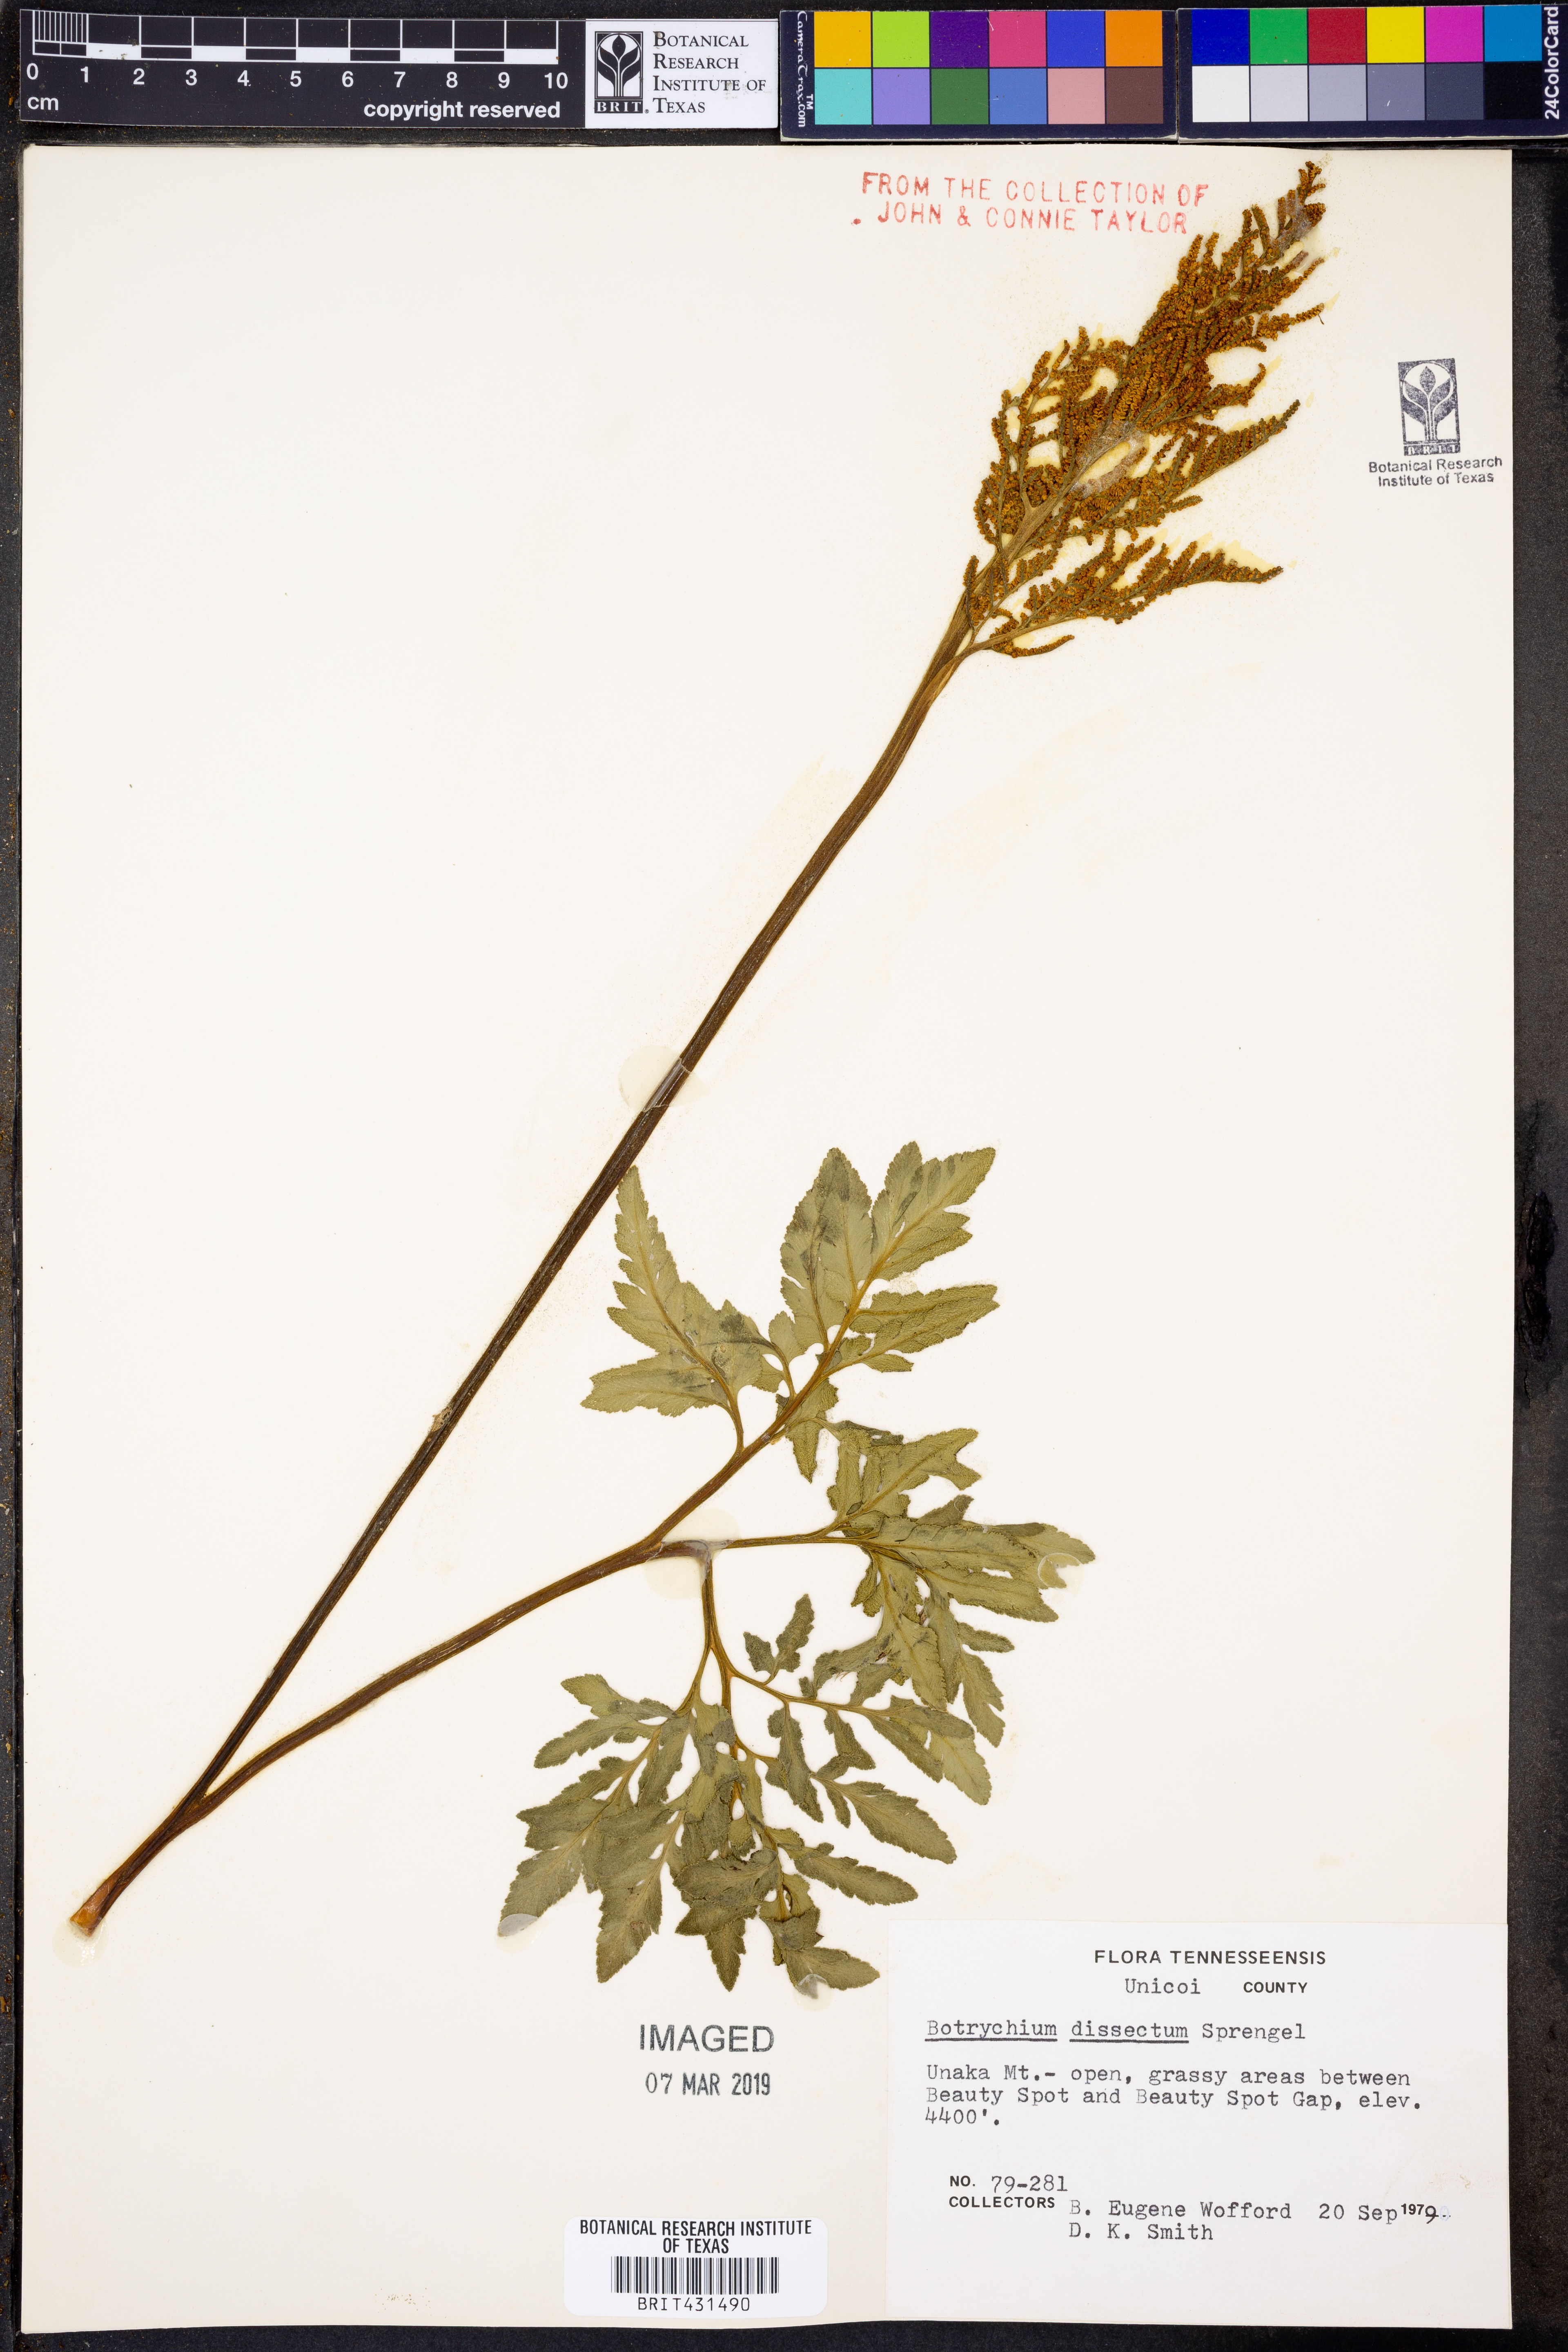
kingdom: Plantae
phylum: Tracheophyta
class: Polypodiopsida
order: Ophioglossales
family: Ophioglossaceae
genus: Sceptridium
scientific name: Sceptridium dissectum
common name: Cut-leaved grapefern
